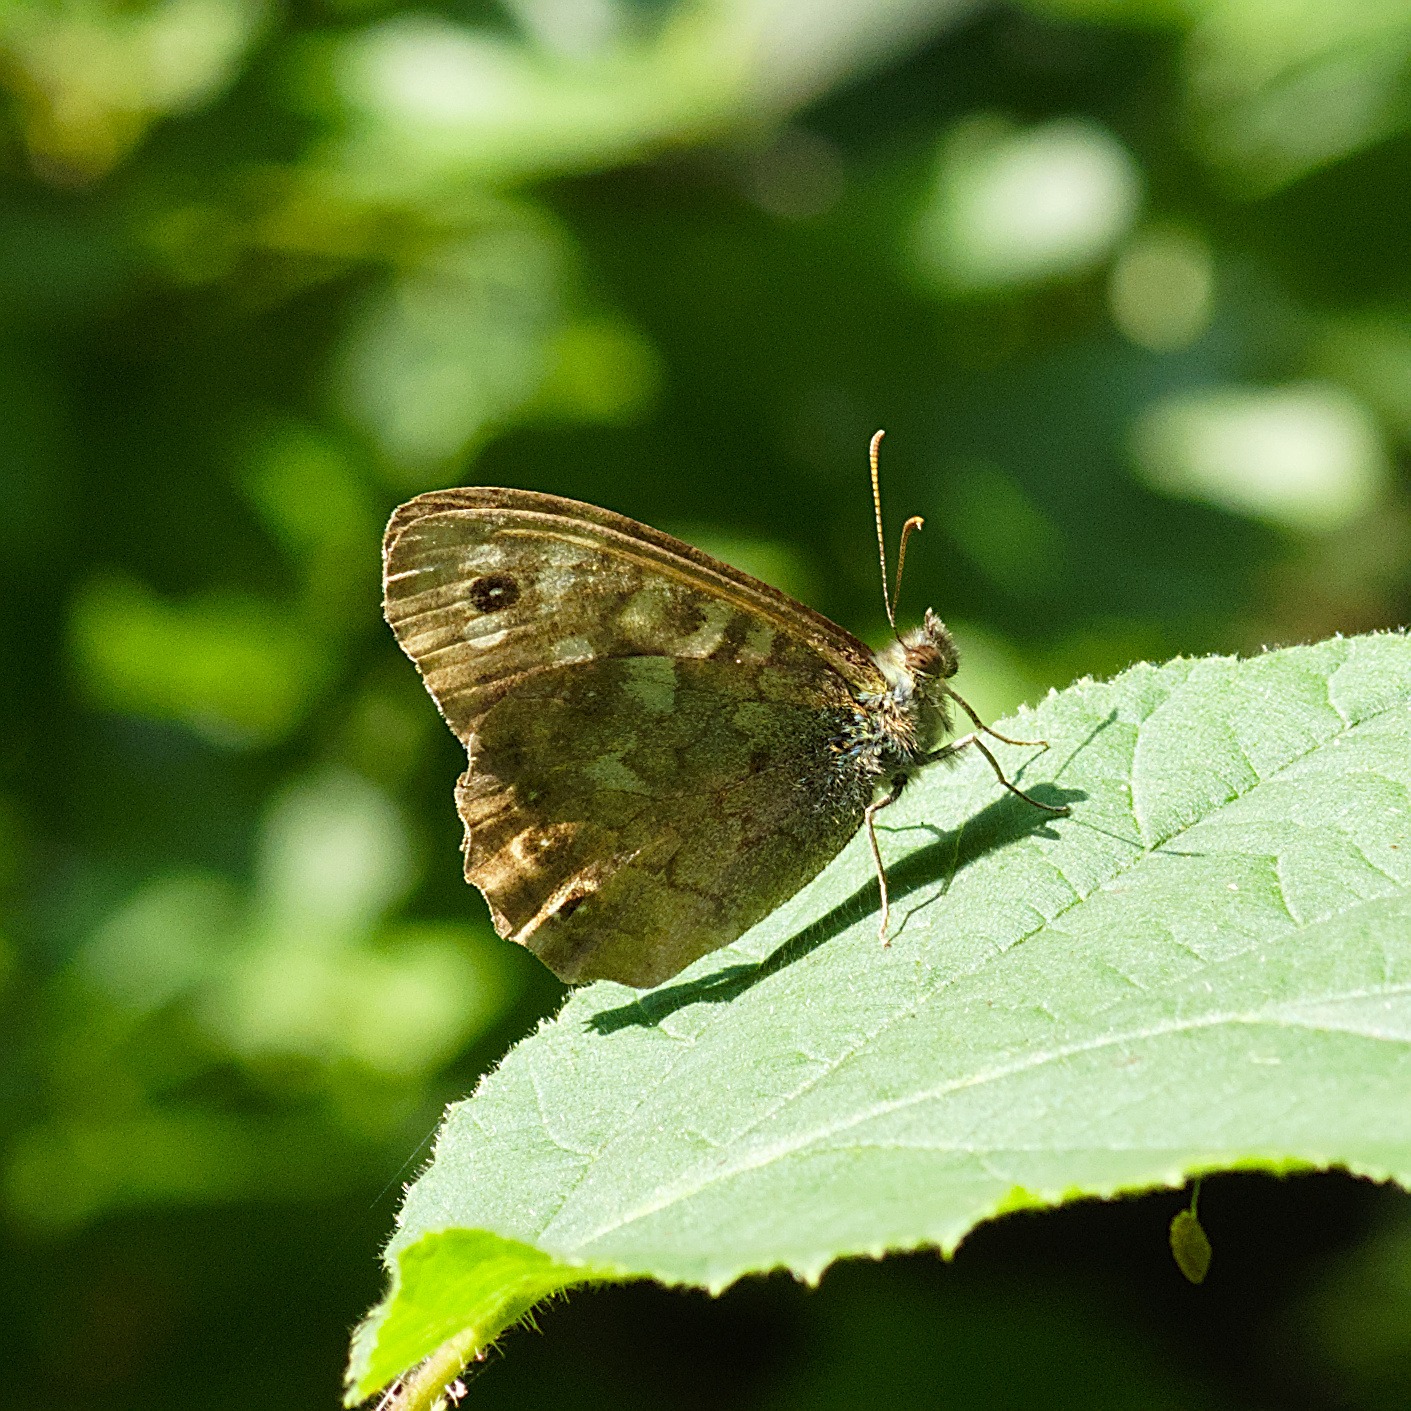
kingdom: Animalia
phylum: Arthropoda
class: Insecta
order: Lepidoptera
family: Nymphalidae
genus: Pararge
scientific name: Pararge aegeria
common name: Skovrandøje
